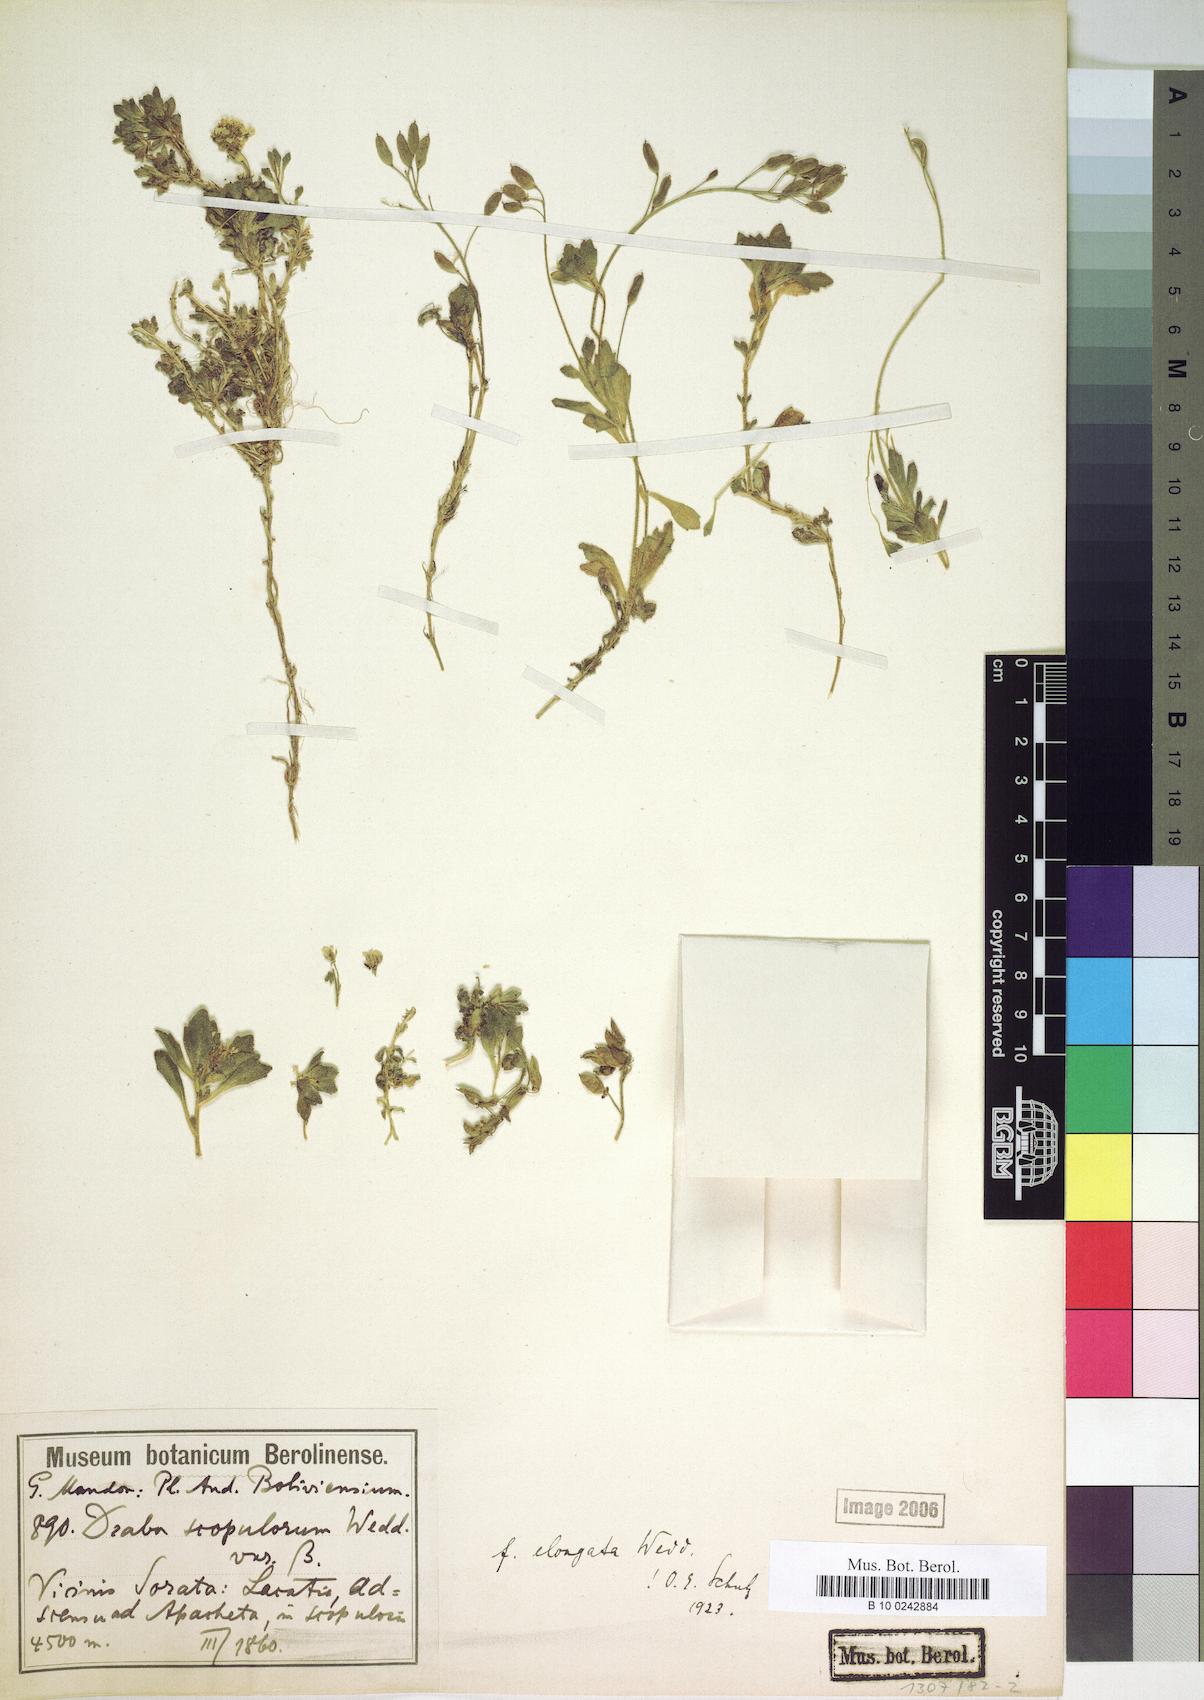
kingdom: Plantae
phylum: Tracheophyta
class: Magnoliopsida
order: Brassicales
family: Brassicaceae
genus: Draba
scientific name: Draba scopulorum
